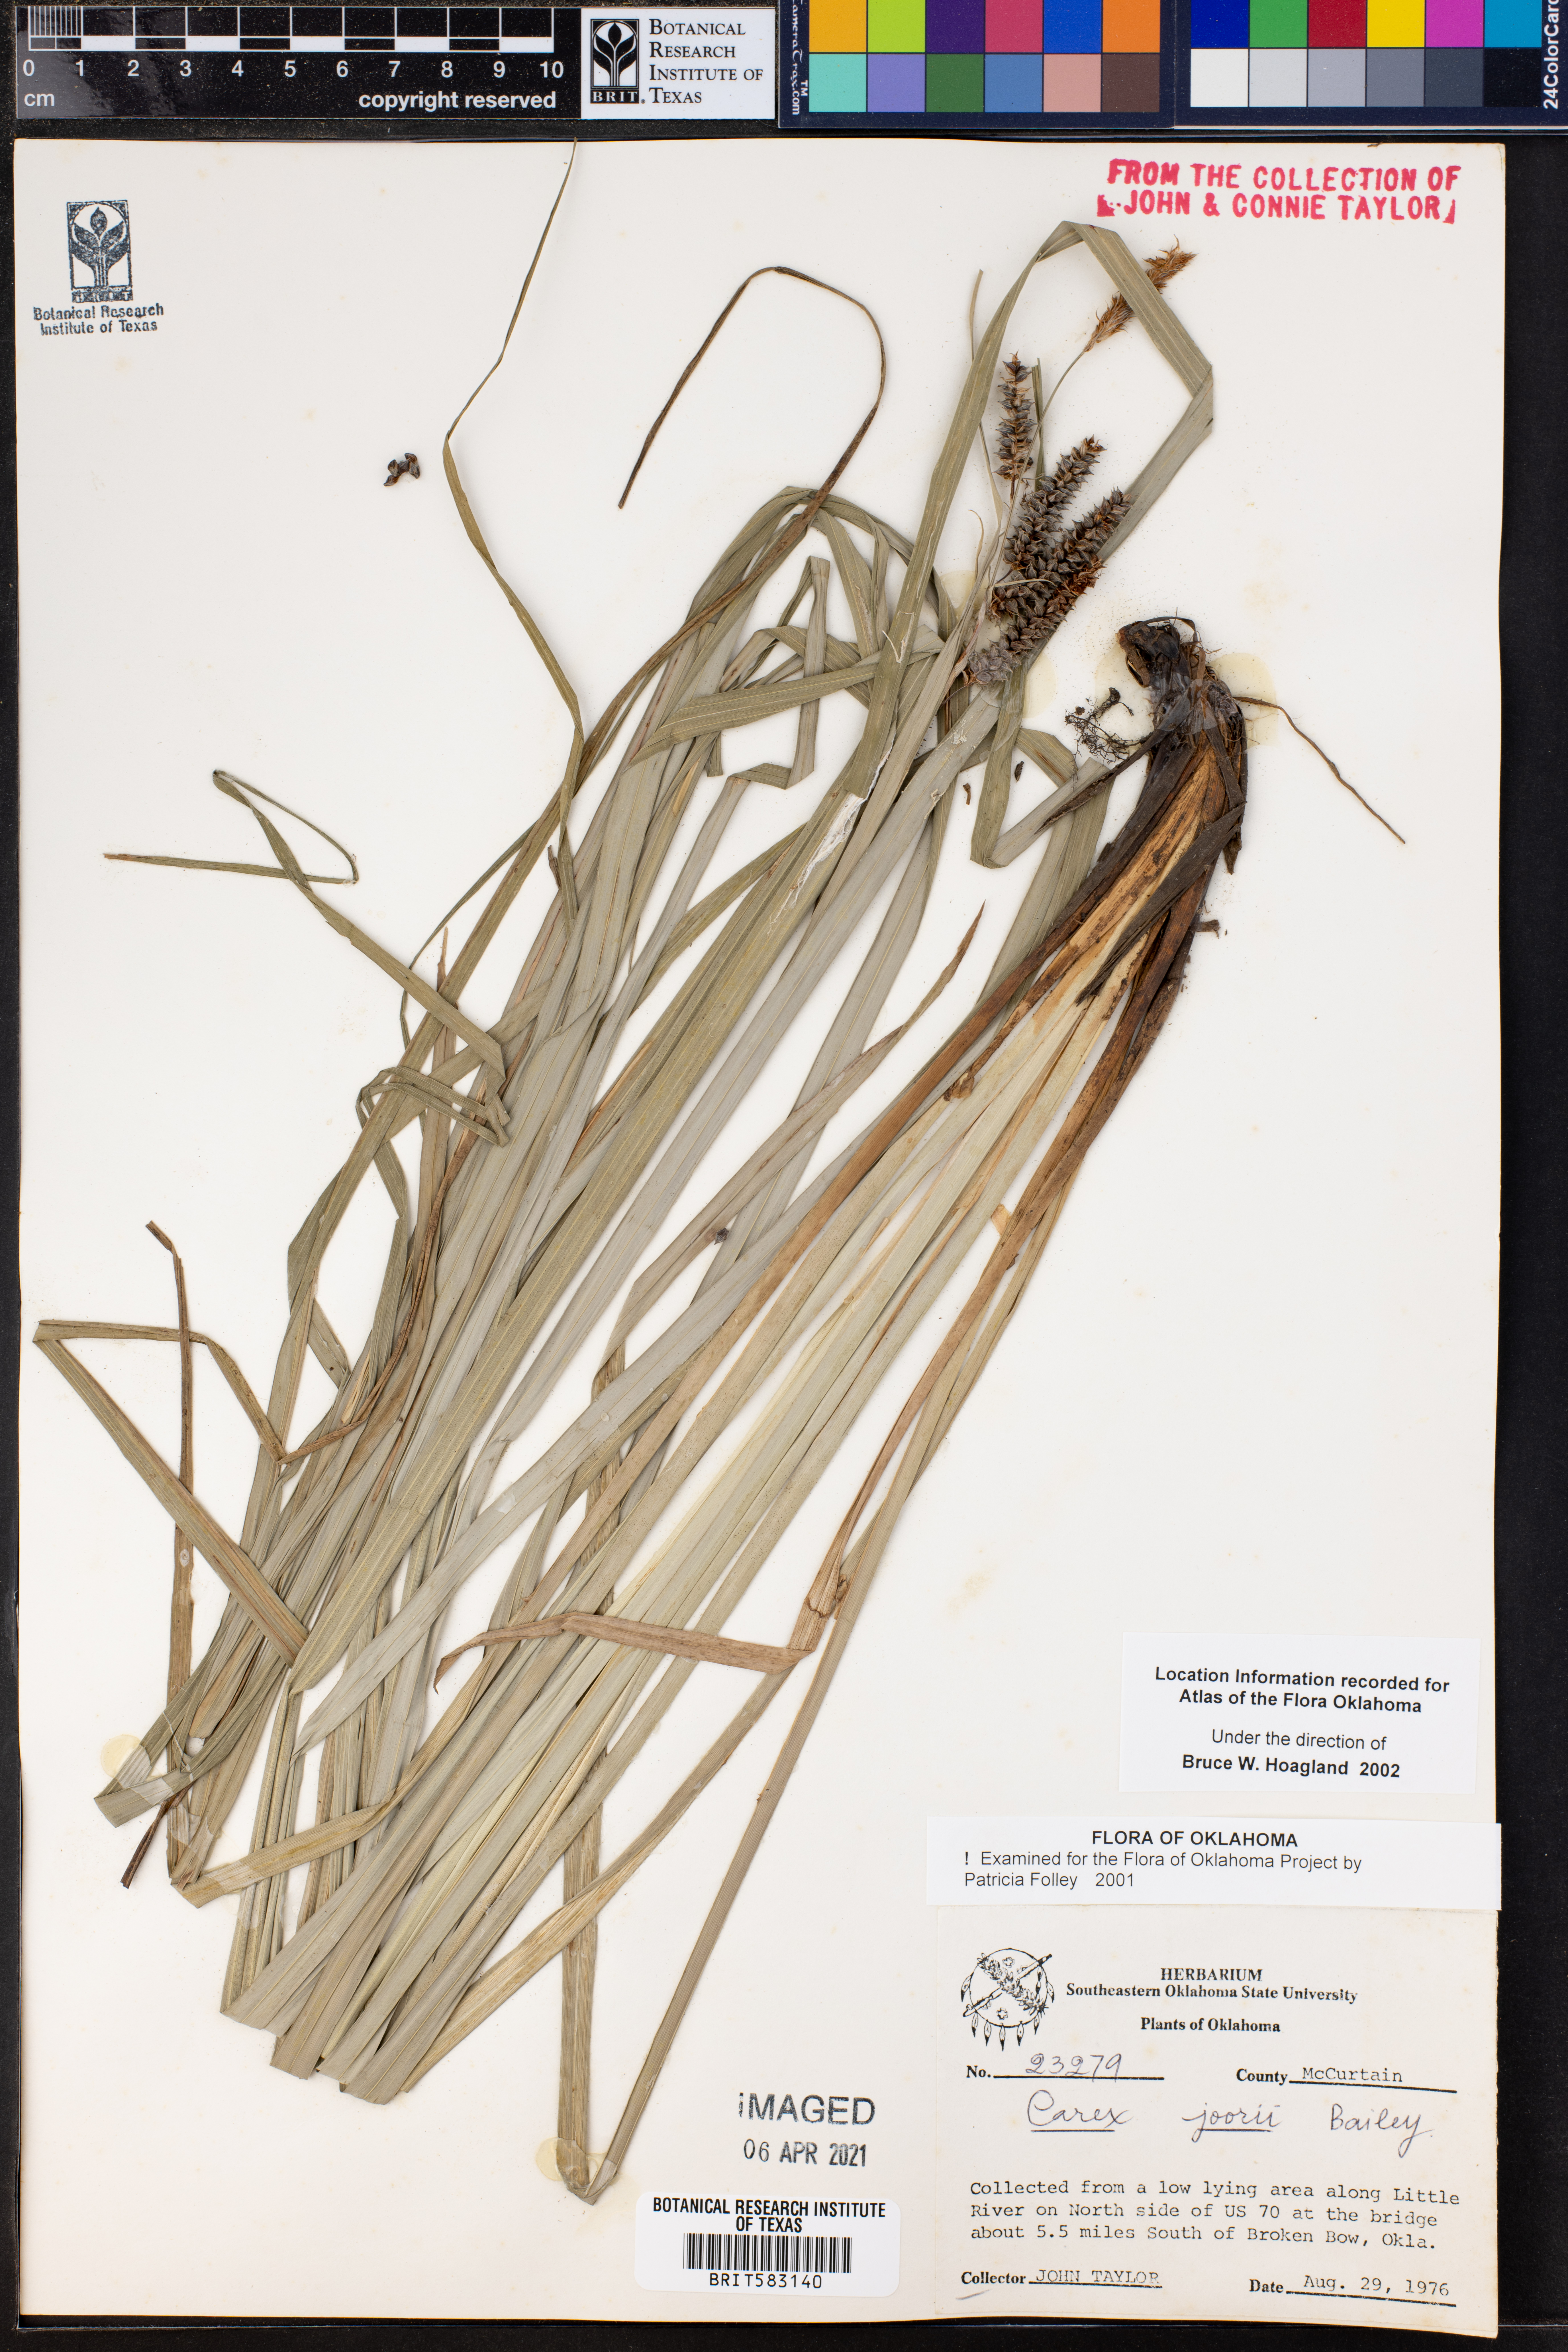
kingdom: Plantae
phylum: Tracheophyta
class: Liliopsida
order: Poales
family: Cyperaceae
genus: Carex
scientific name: Carex joorii
